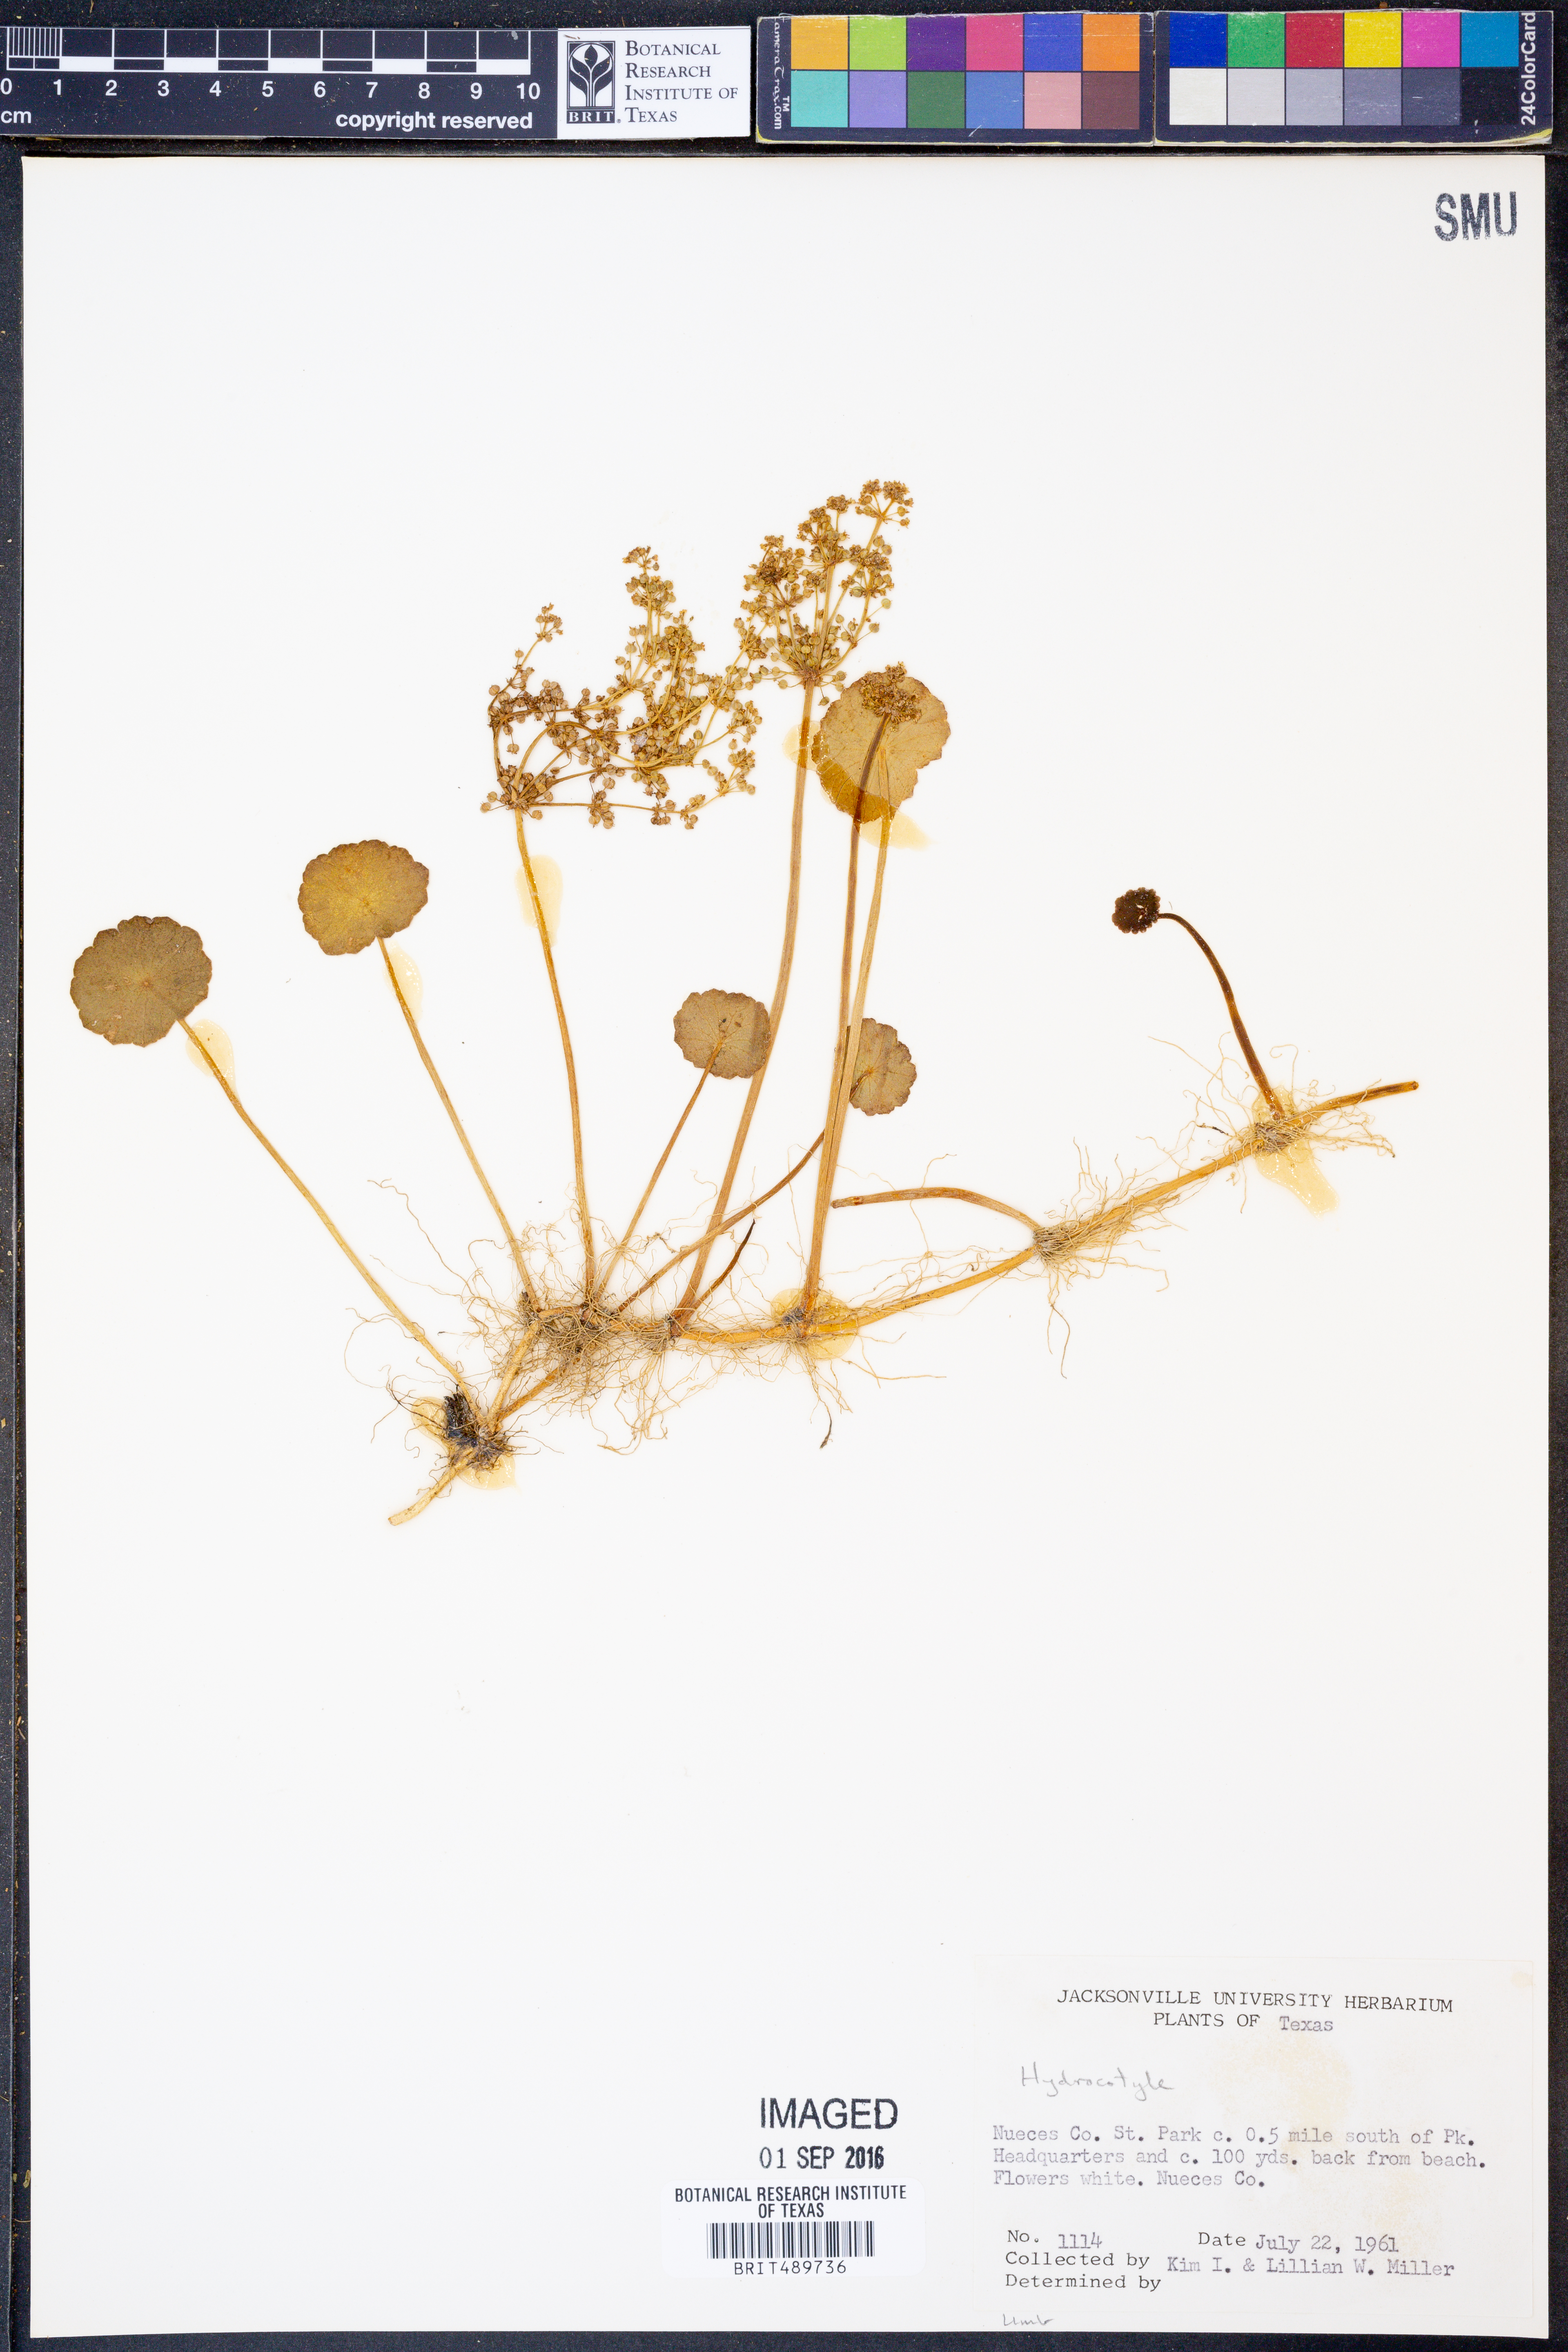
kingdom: Plantae
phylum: Tracheophyta
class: Magnoliopsida
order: Apiales
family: Araliaceae
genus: Hydrocotyle
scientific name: Hydrocotyle
